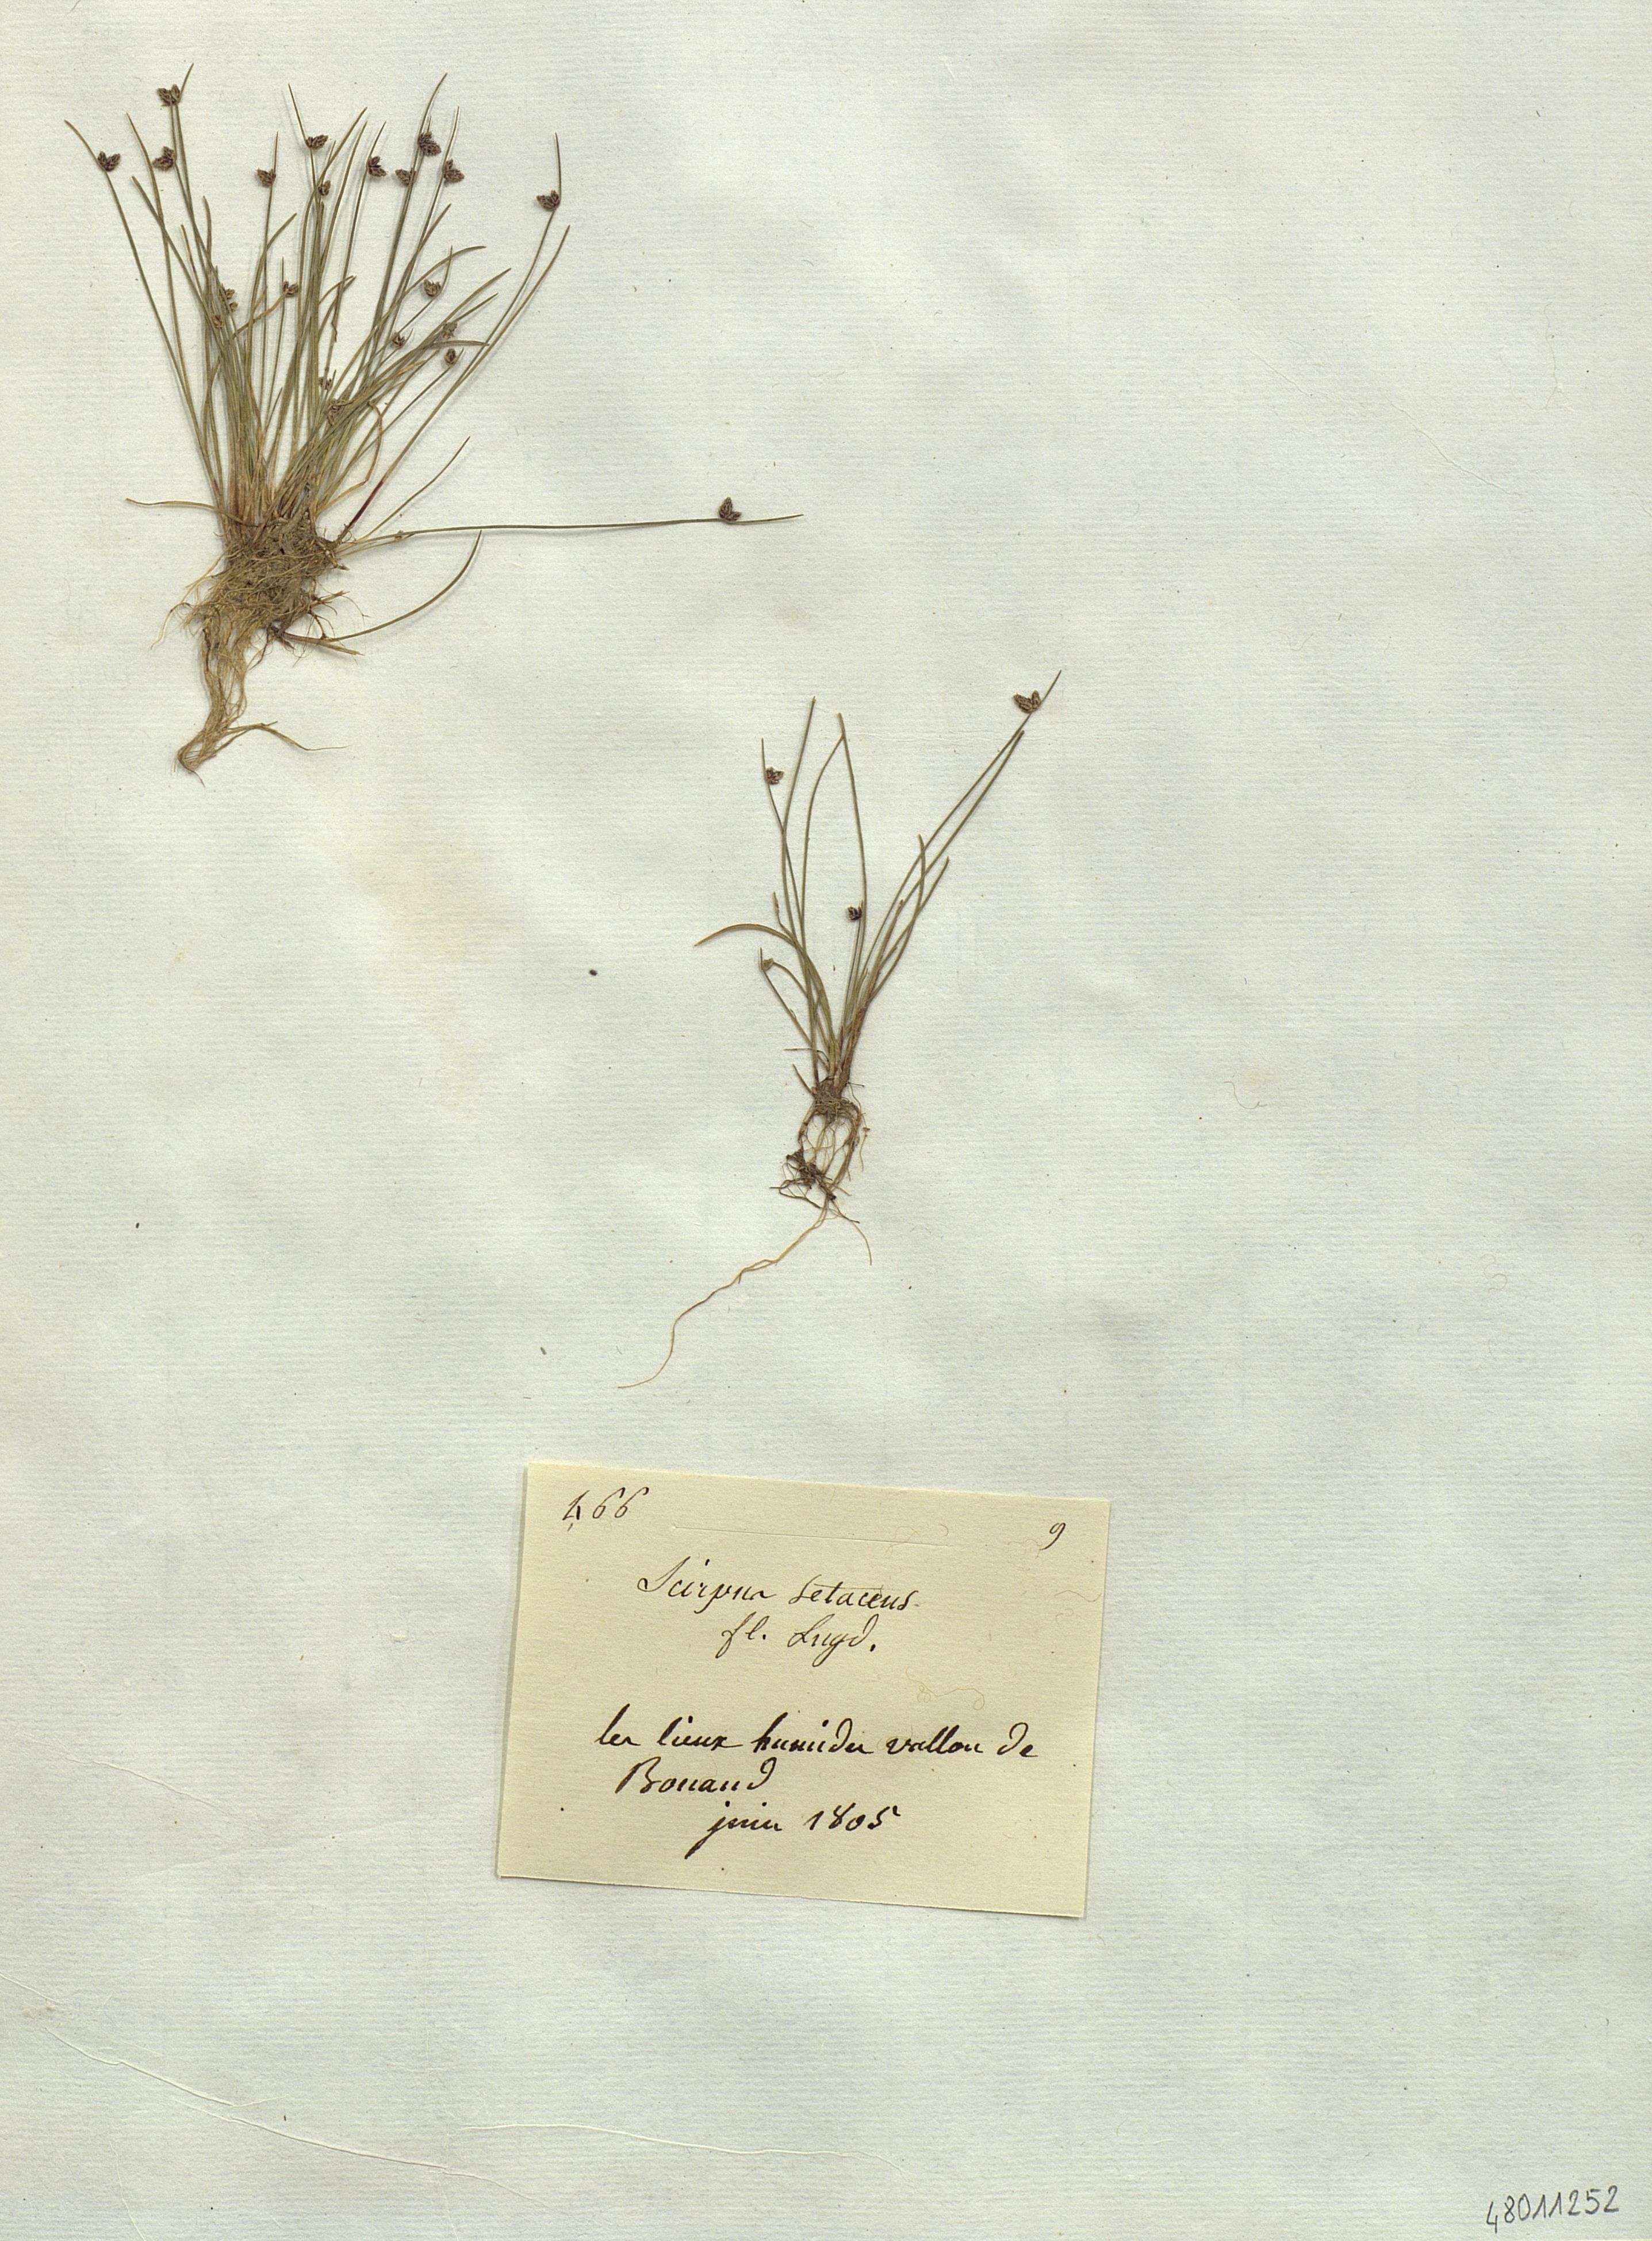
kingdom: Plantae
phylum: Tracheophyta
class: Liliopsida
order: Poales
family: Cyperaceae
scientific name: Cyperaceae
